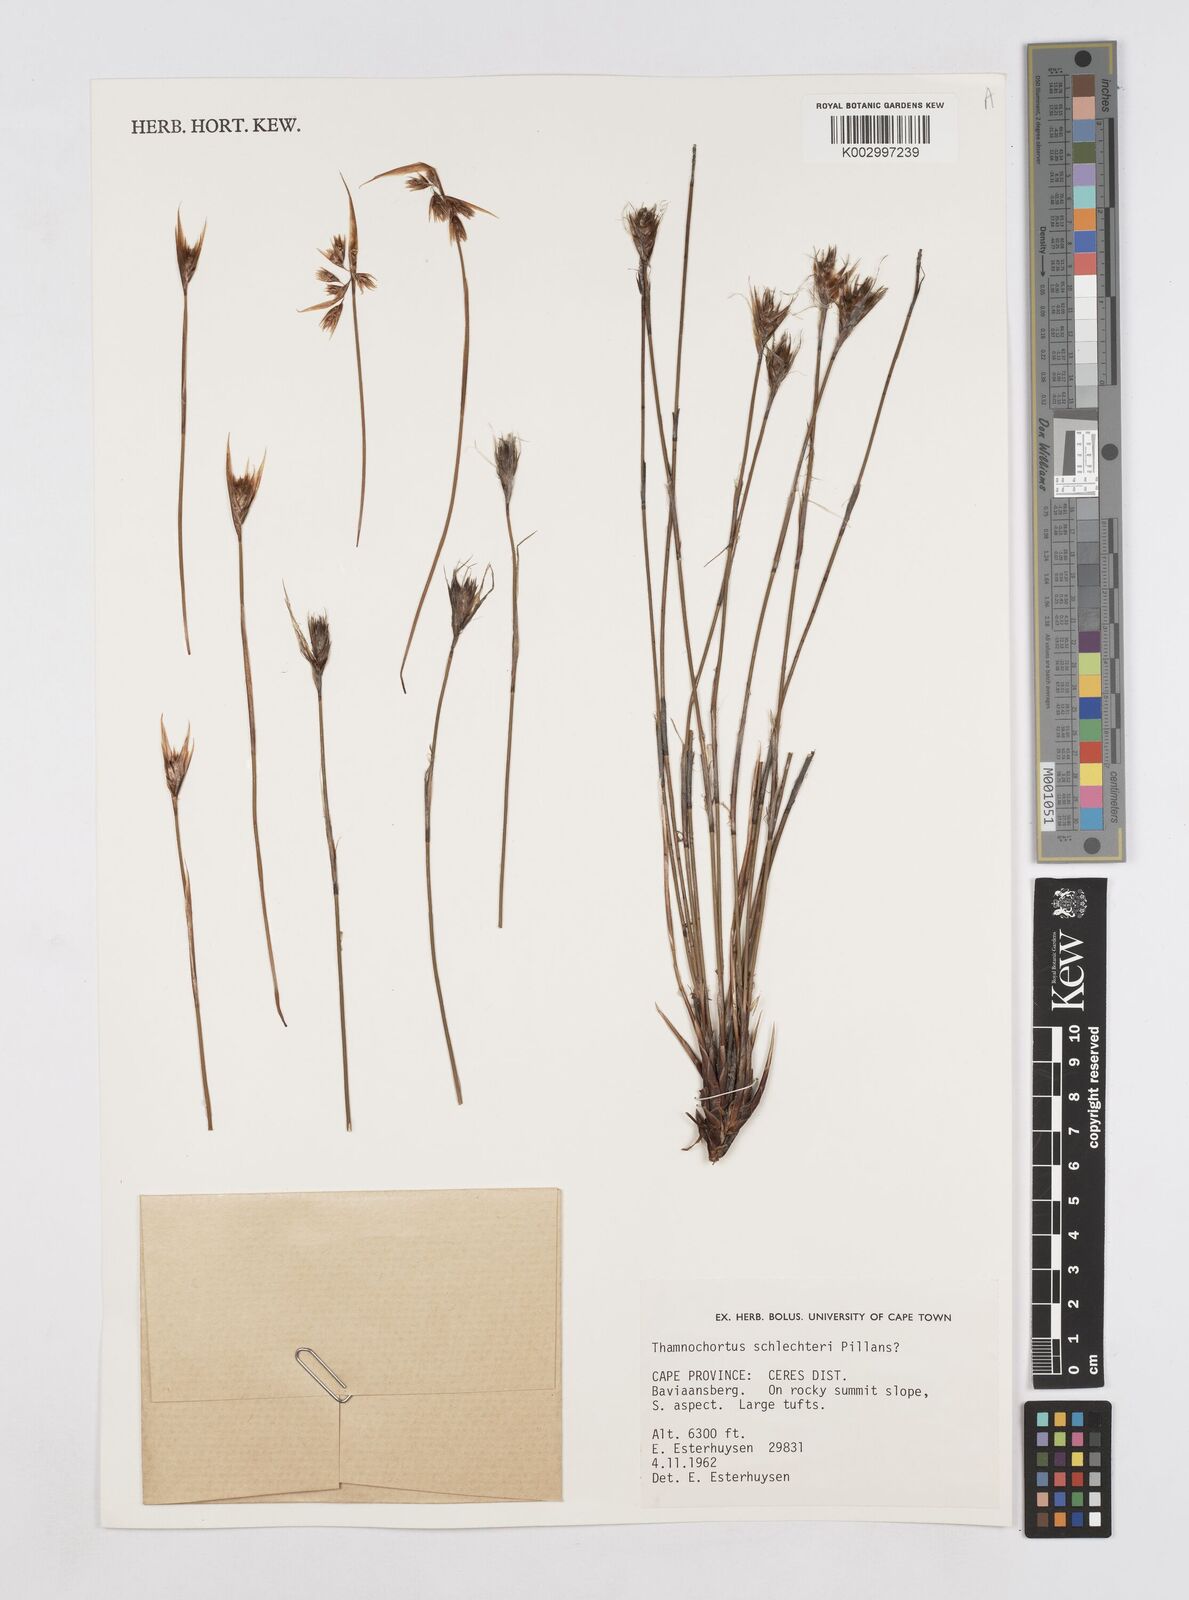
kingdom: Plantae
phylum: Tracheophyta
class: Liliopsida
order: Poales
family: Restionaceae
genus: Thamnochortus
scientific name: Thamnochortus schlechteri
